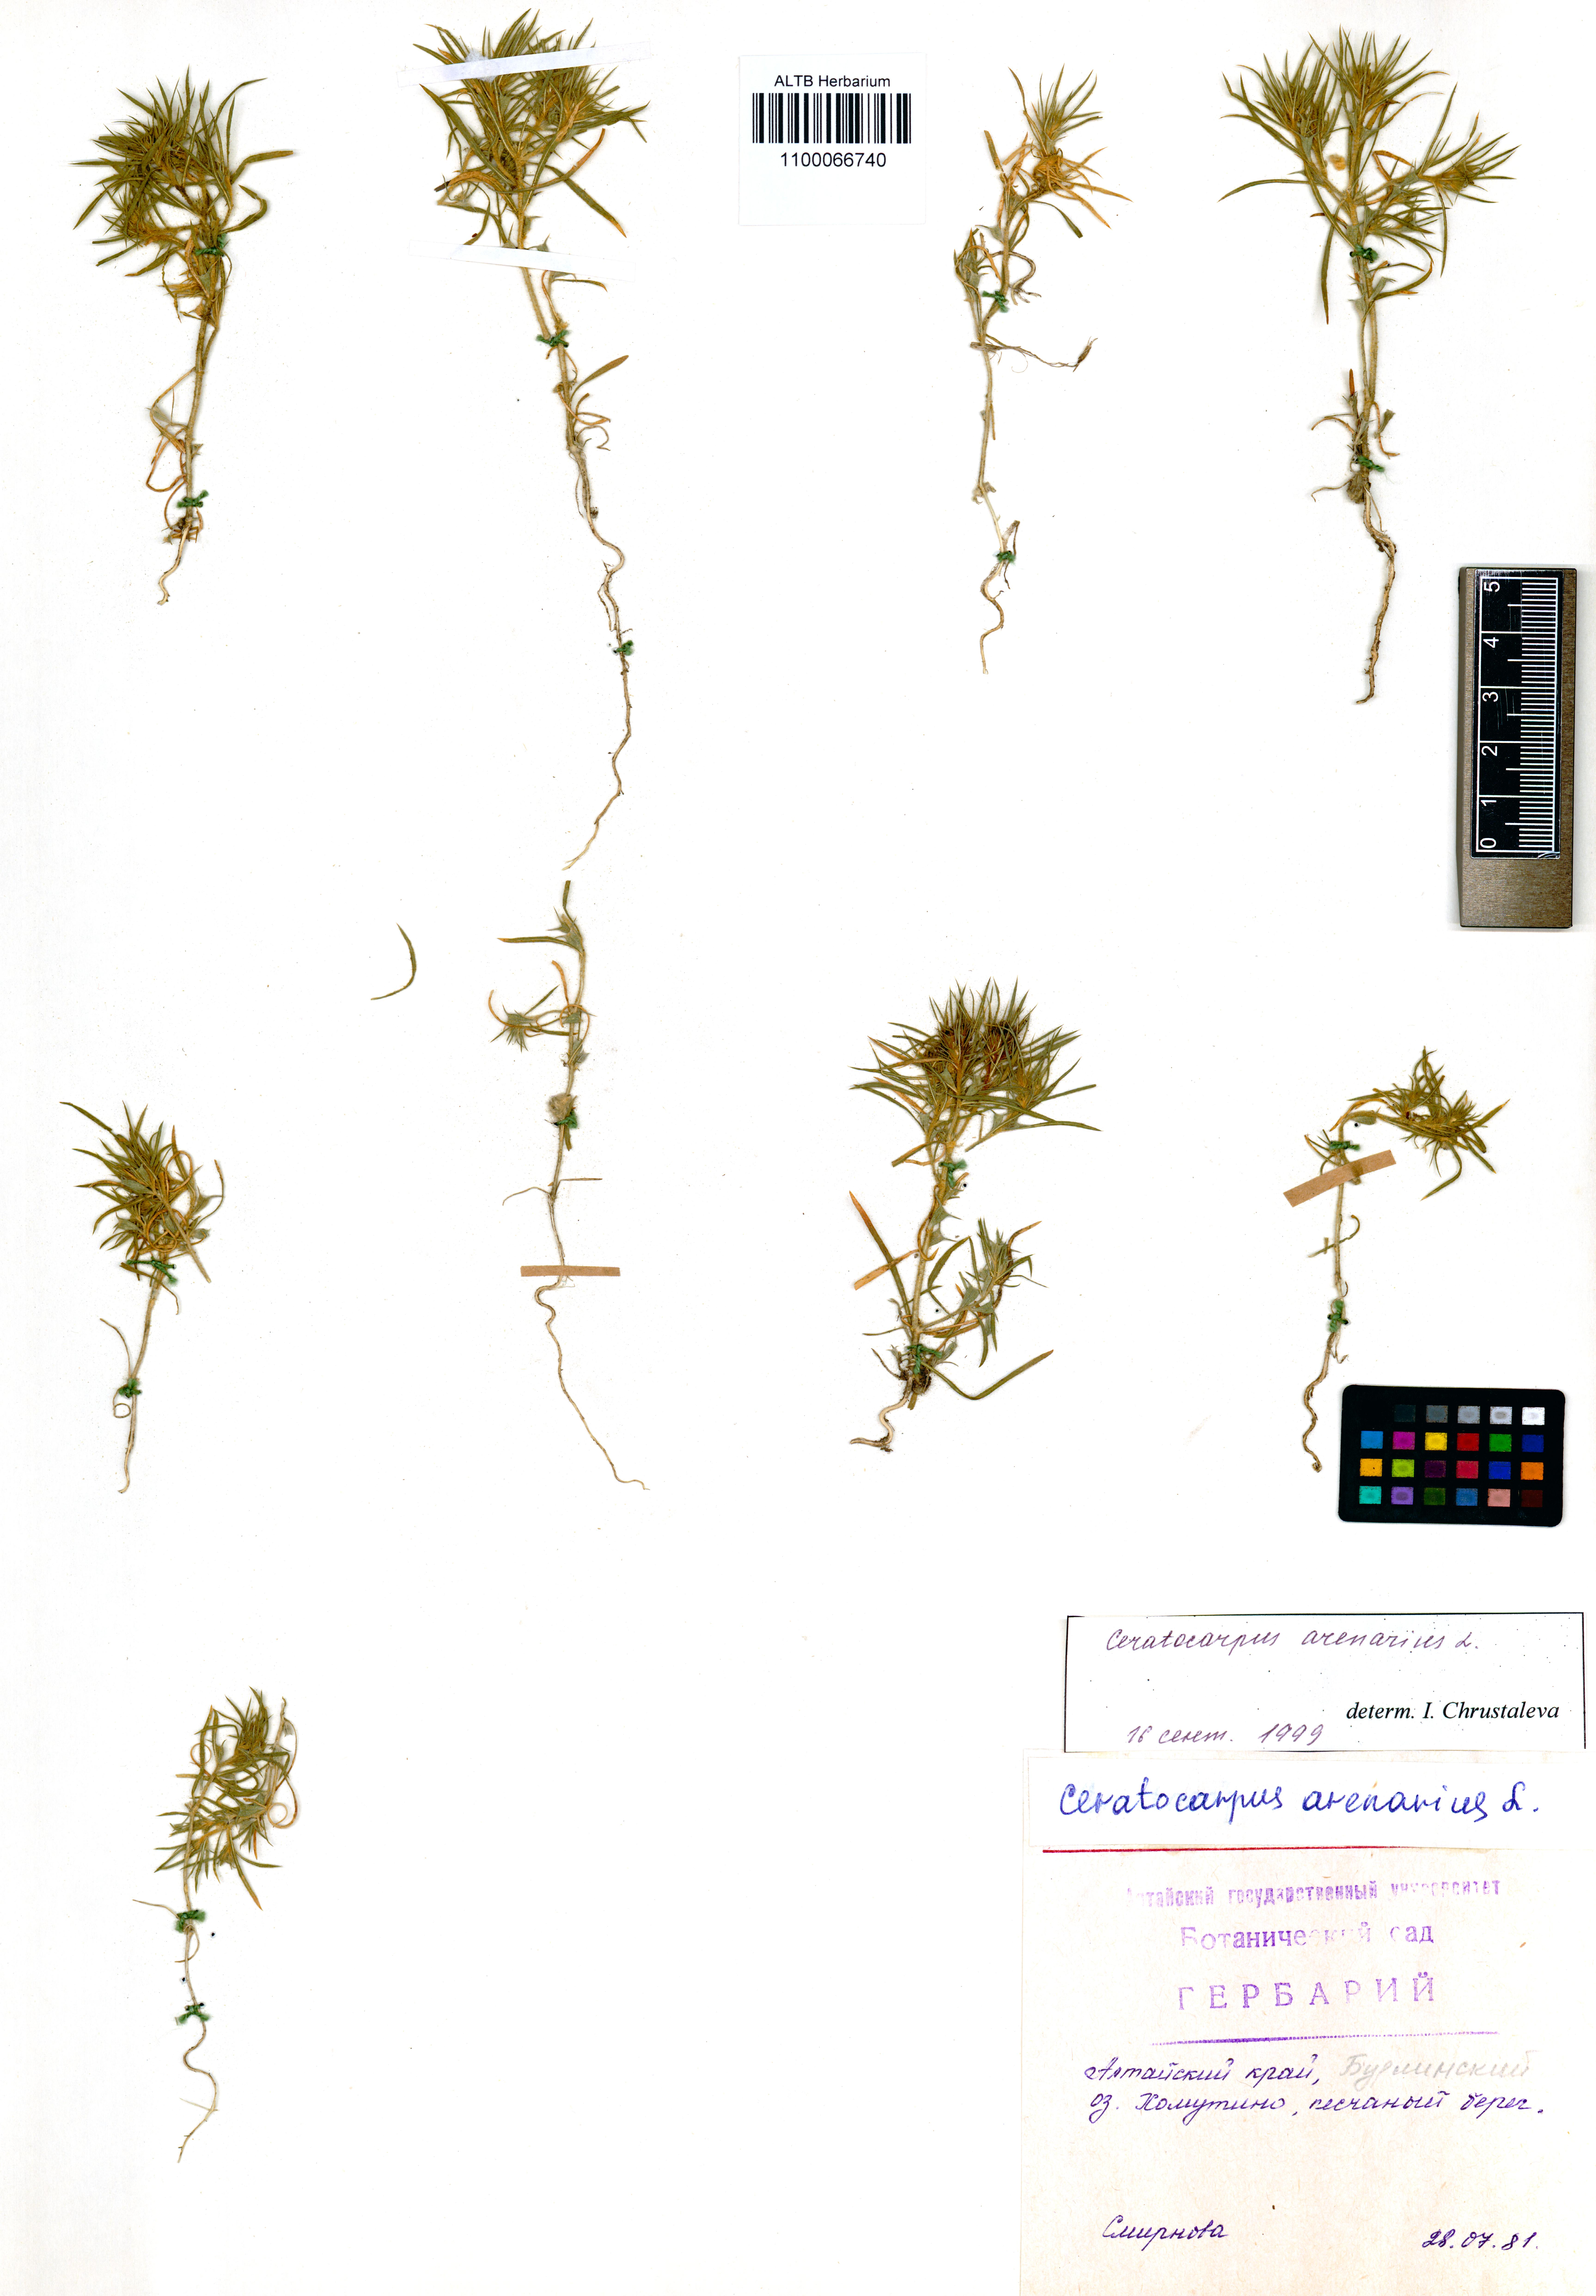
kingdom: Plantae
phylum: Tracheophyta
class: Magnoliopsida
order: Caryophyllales
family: Amaranthaceae
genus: Ceratocarpus
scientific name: Ceratocarpus arenarius
